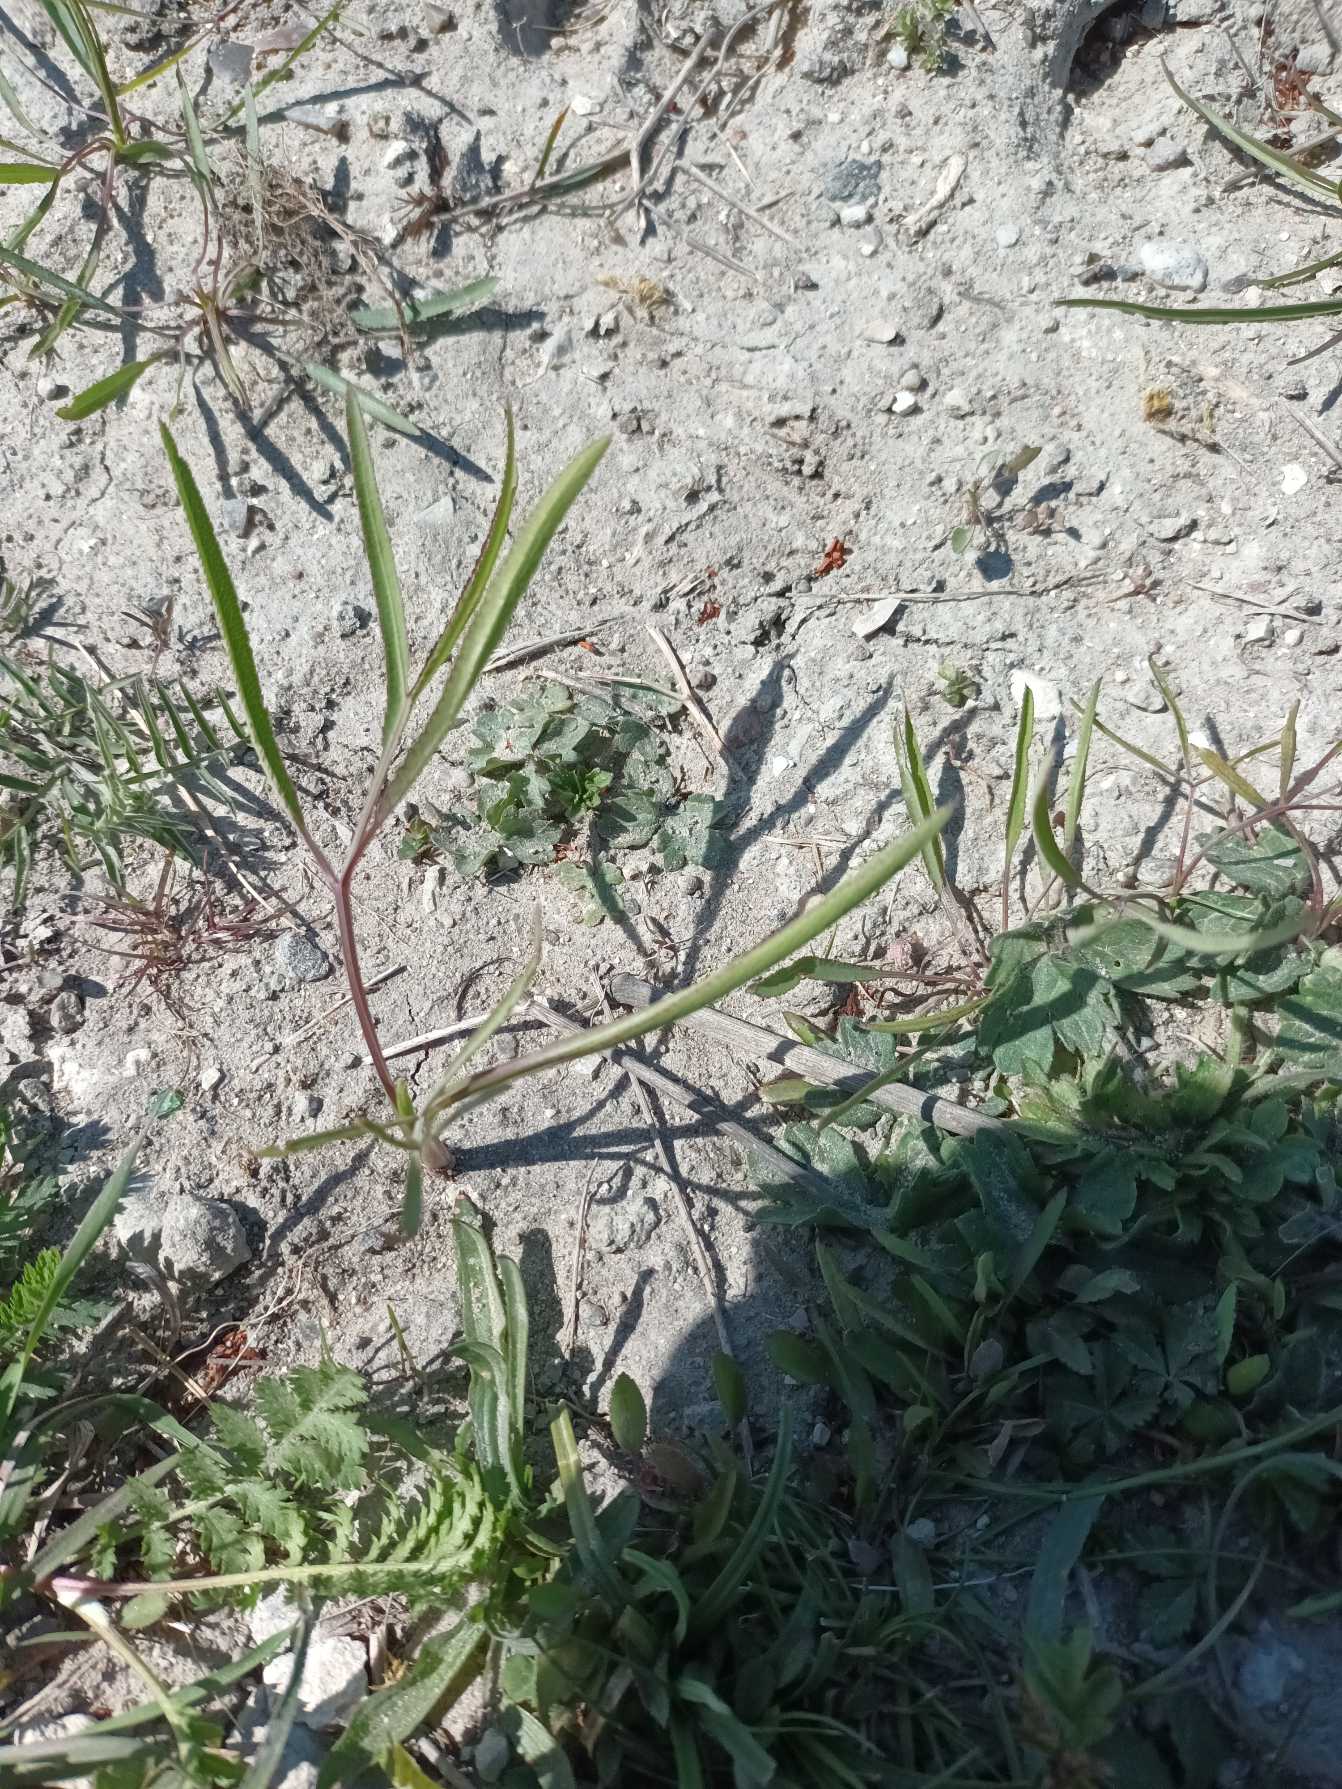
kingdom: Plantae
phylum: Tracheophyta
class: Magnoliopsida
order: Apiales
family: Apiaceae
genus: Falcaria
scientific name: Falcaria vulgaris
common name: Seglblad
